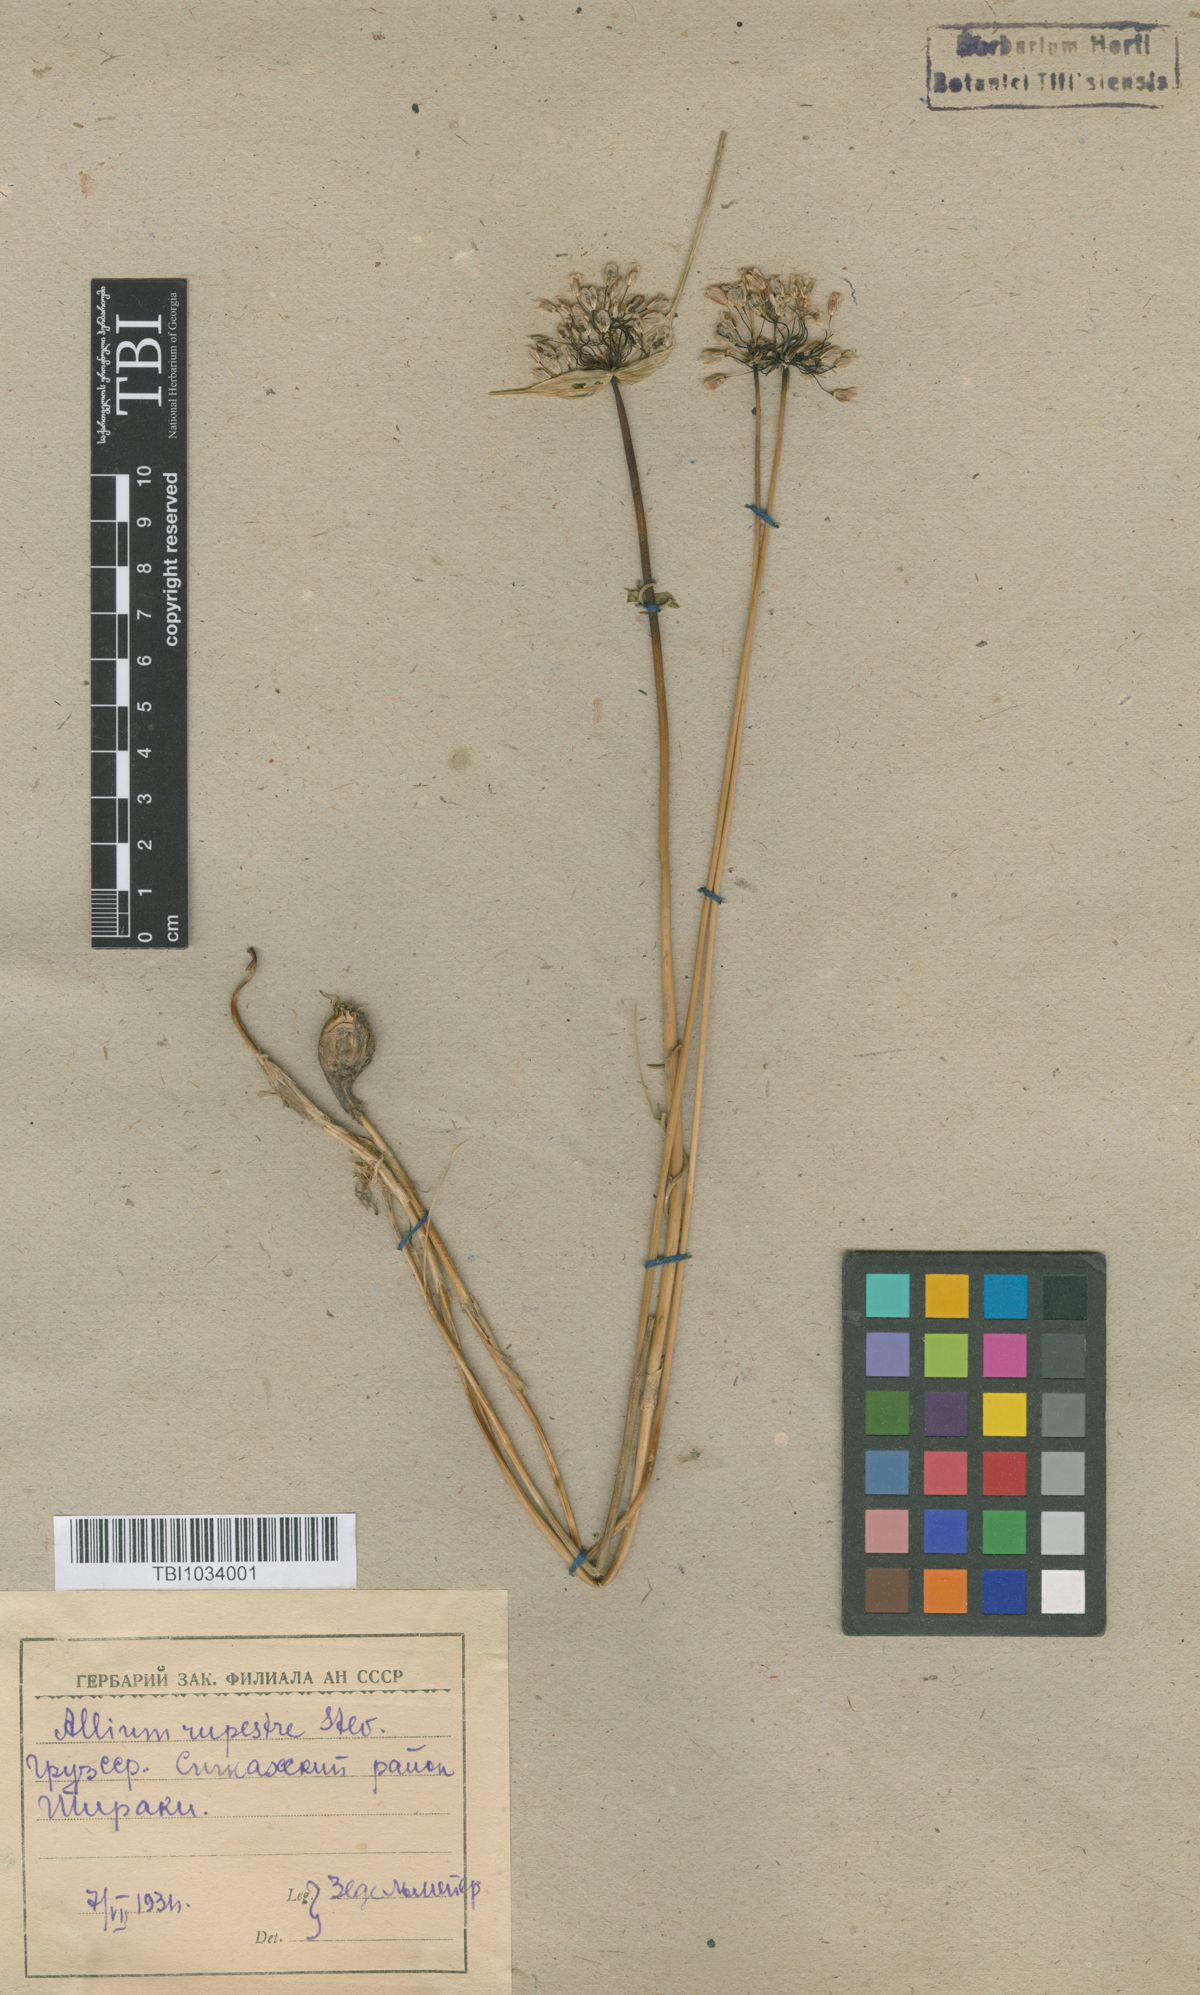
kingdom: Plantae
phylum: Tracheophyta
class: Liliopsida
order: Asparagales
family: Amaryllidaceae
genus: Allium
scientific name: Allium rupestre
